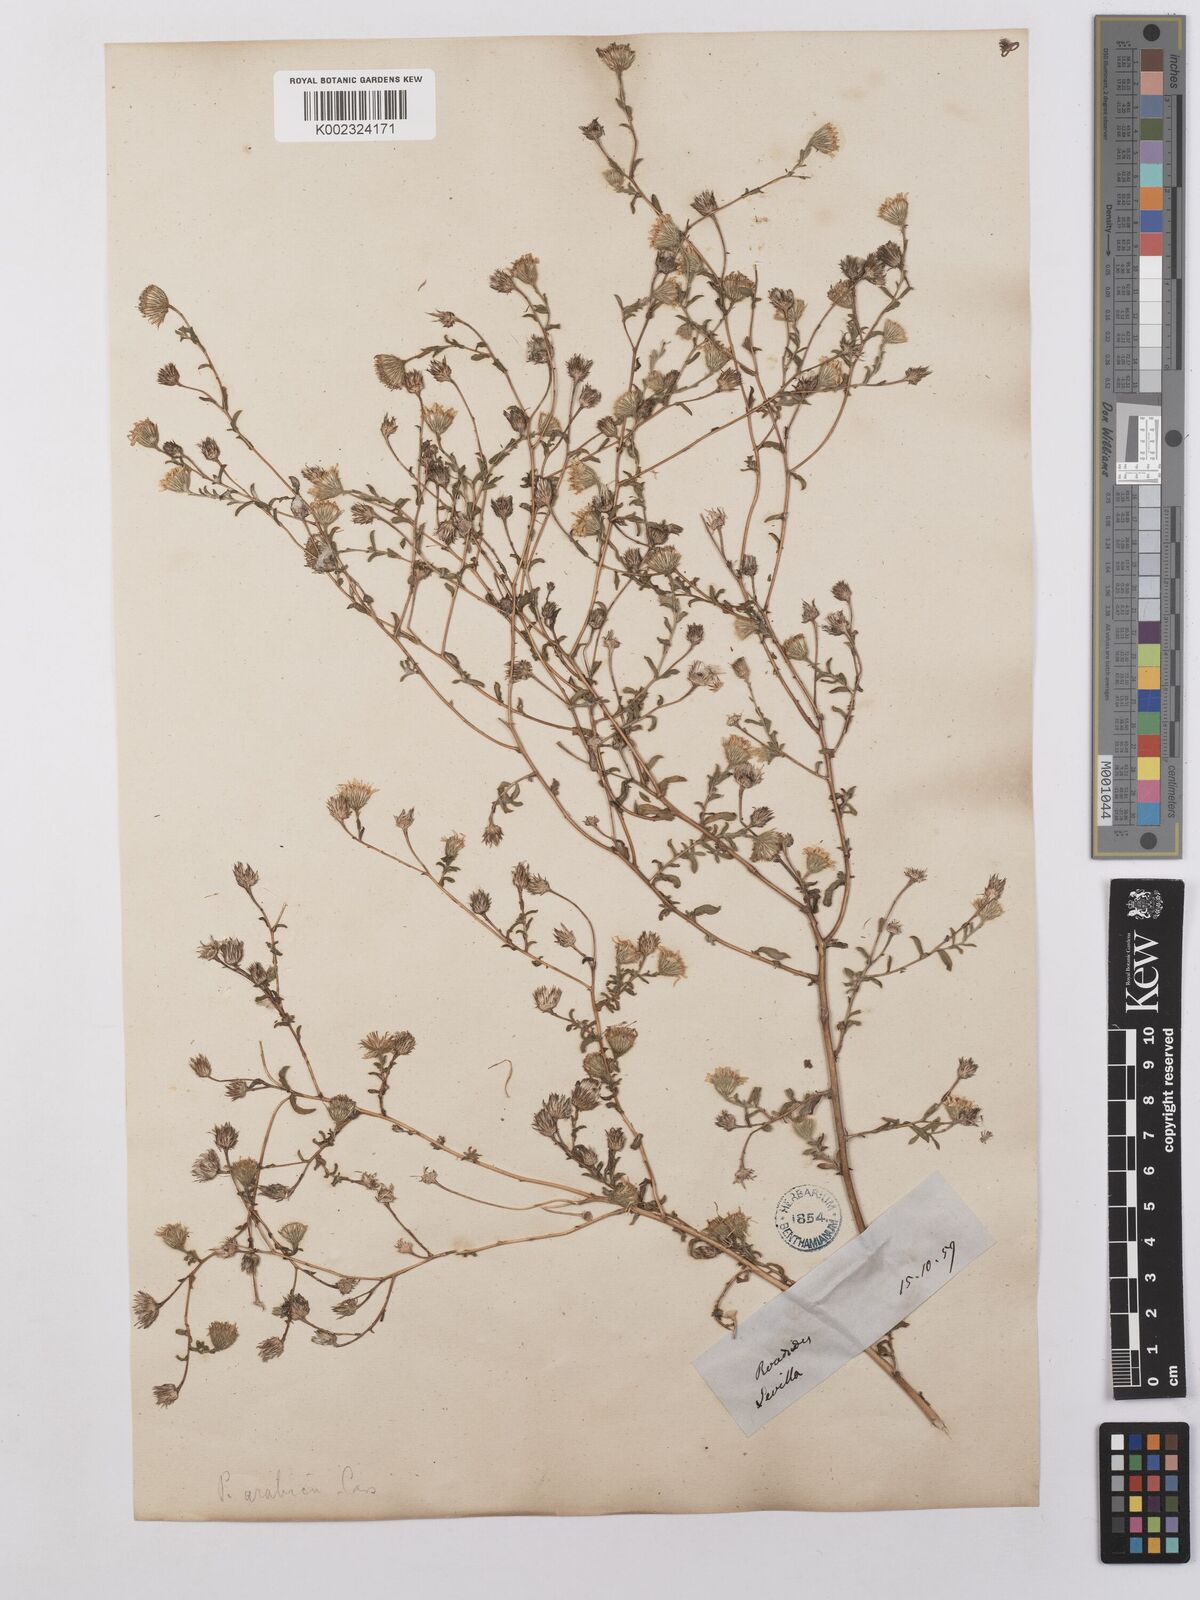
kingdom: Plantae
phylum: Tracheophyta
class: Magnoliopsida
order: Asterales
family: Asteraceae
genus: Pulicaria
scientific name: Pulicaria arabica
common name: Ladies' false fleabane
